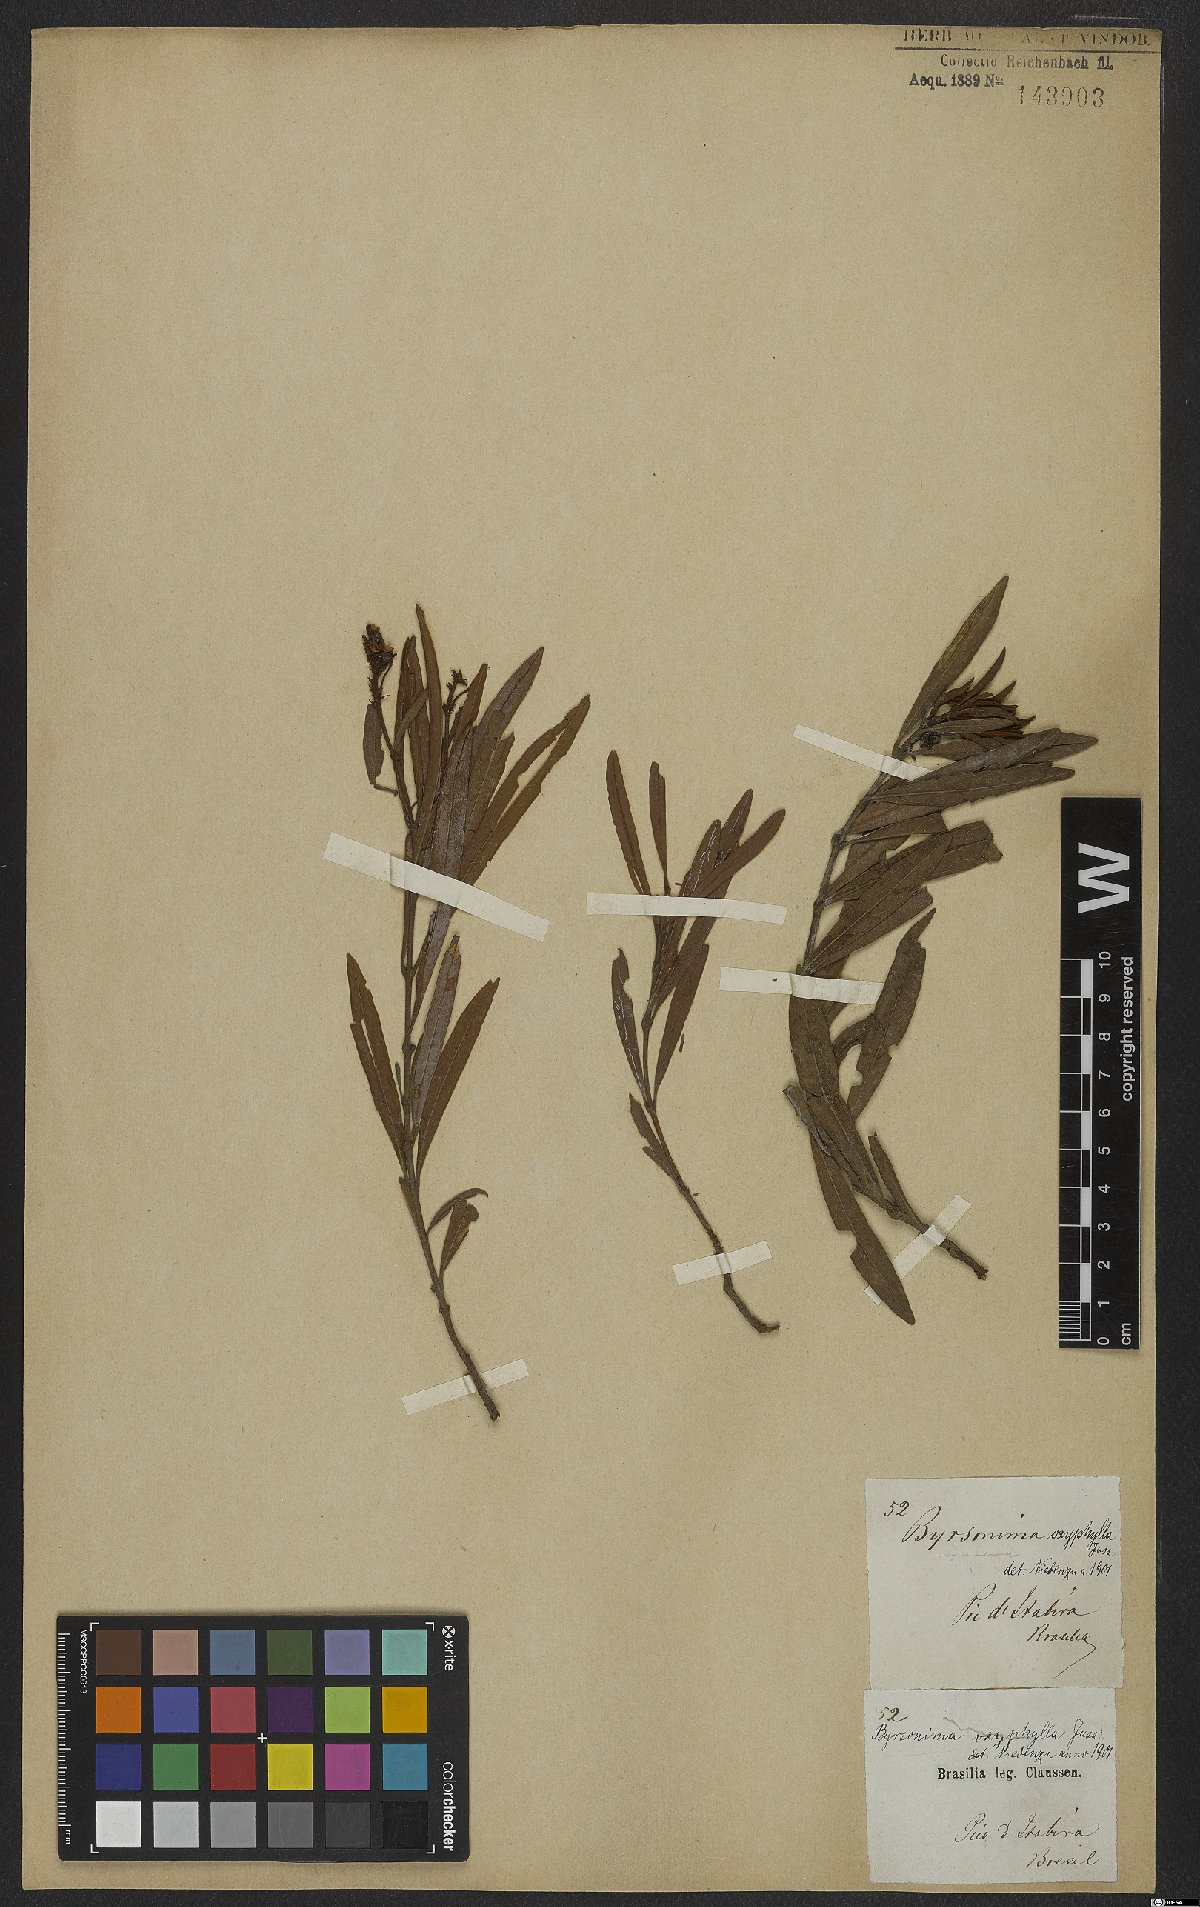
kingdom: Plantae
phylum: Tracheophyta
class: Magnoliopsida
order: Malpighiales
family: Malpighiaceae
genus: Byrsonima
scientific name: Byrsonima oxyphylla
